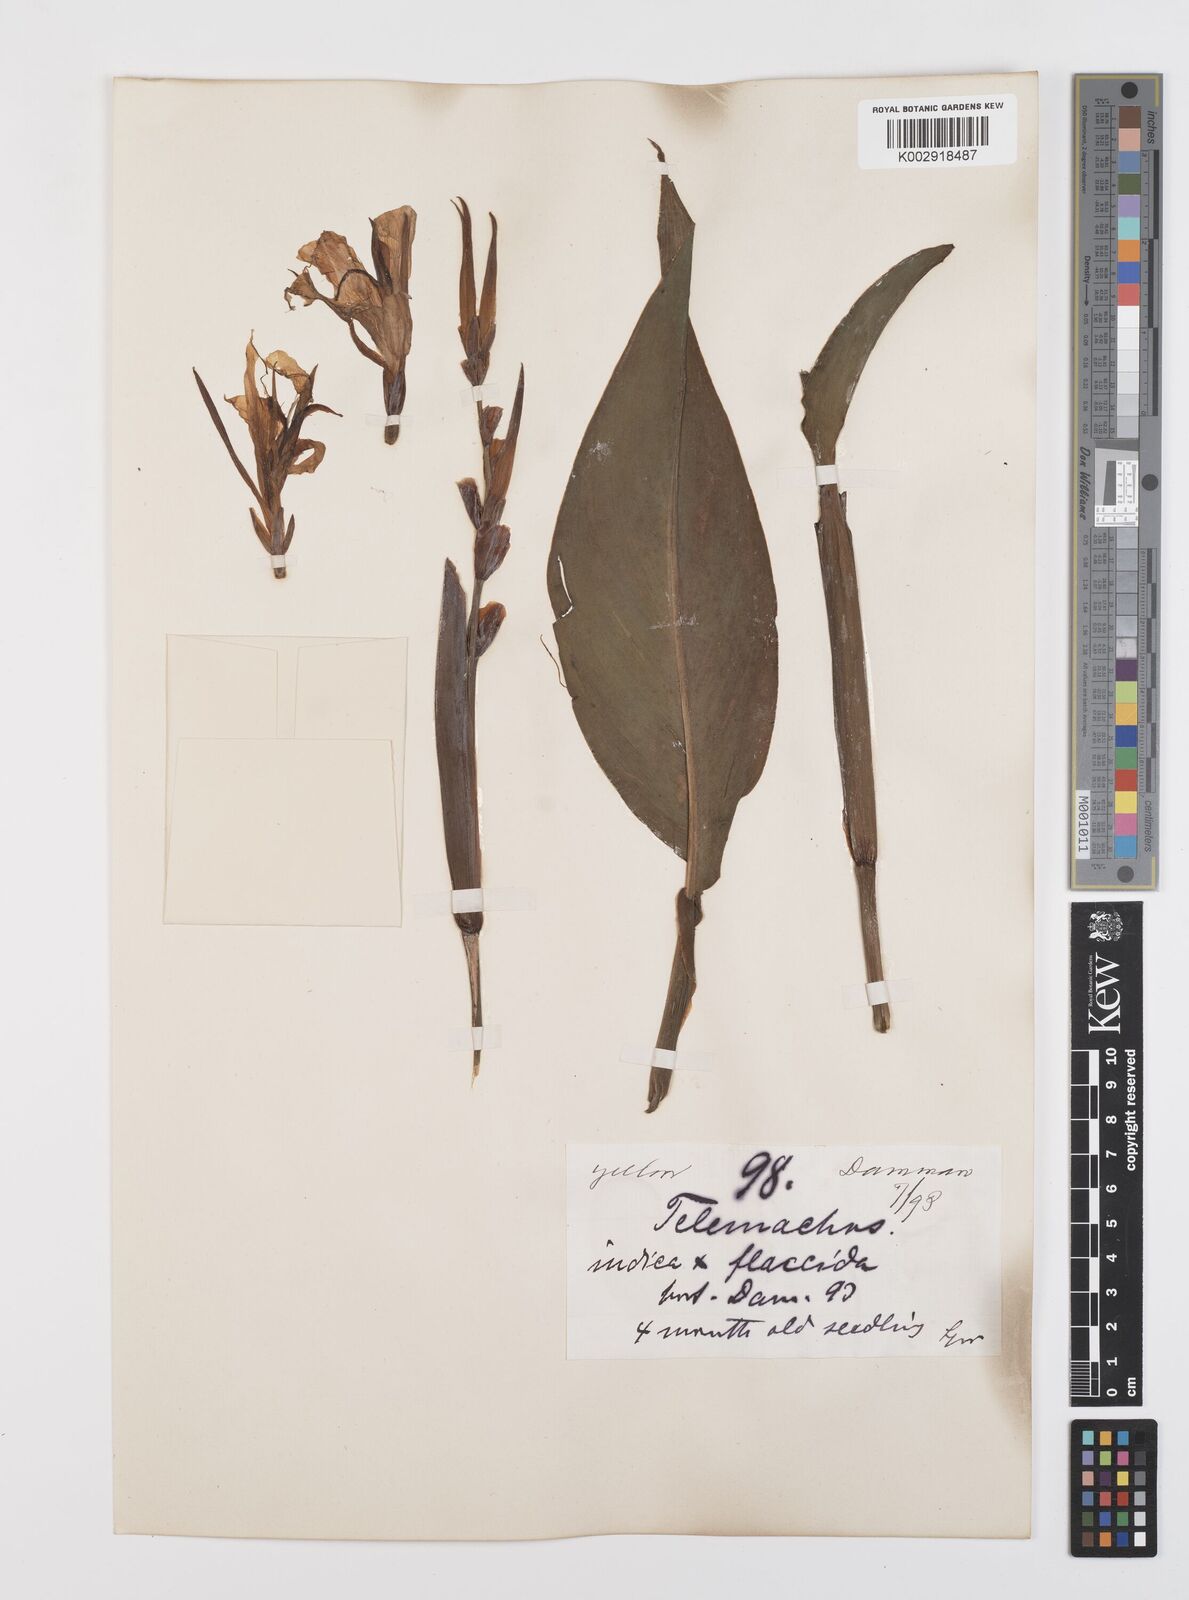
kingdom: Plantae
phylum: Tracheophyta
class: Liliopsida
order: Zingiberales
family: Cannaceae
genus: Canna
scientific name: Canna indica
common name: Indian shot
